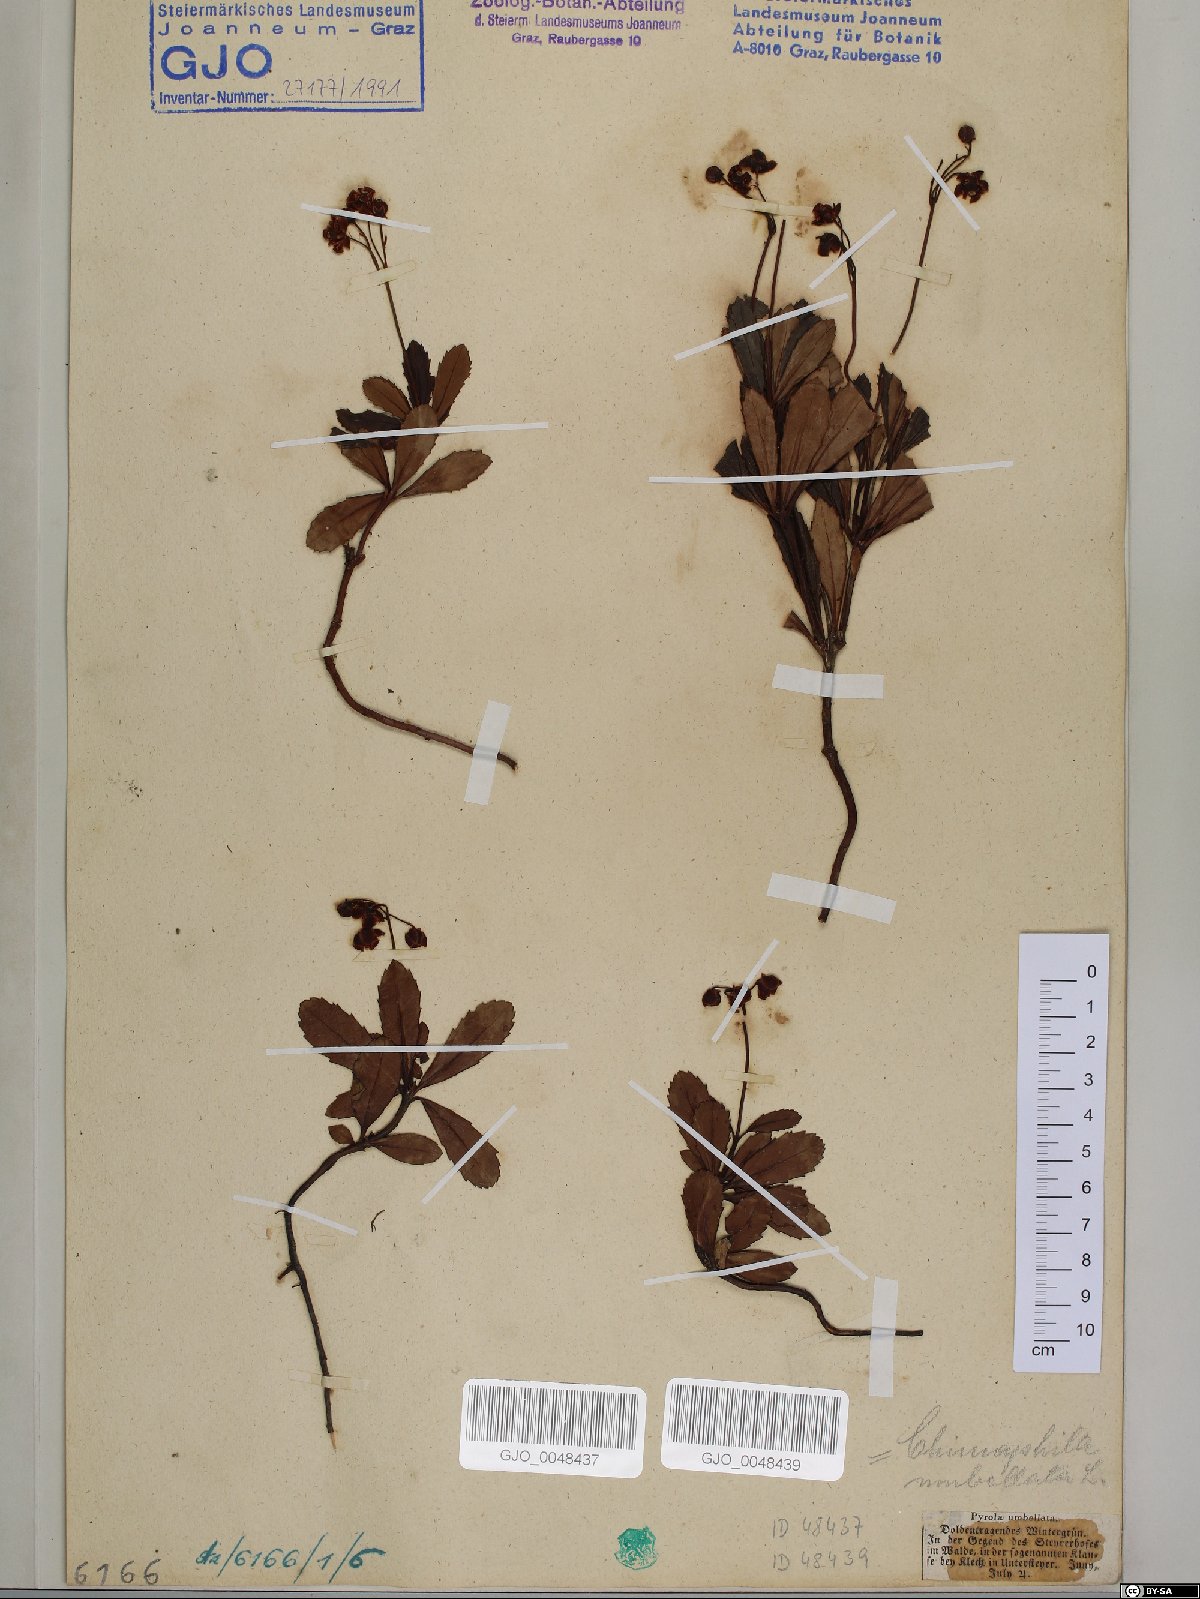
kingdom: Plantae
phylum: Tracheophyta
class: Magnoliopsida
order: Ericales
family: Ericaceae
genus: Chimaphila
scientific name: Chimaphila umbellata
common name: Pipsissewa
